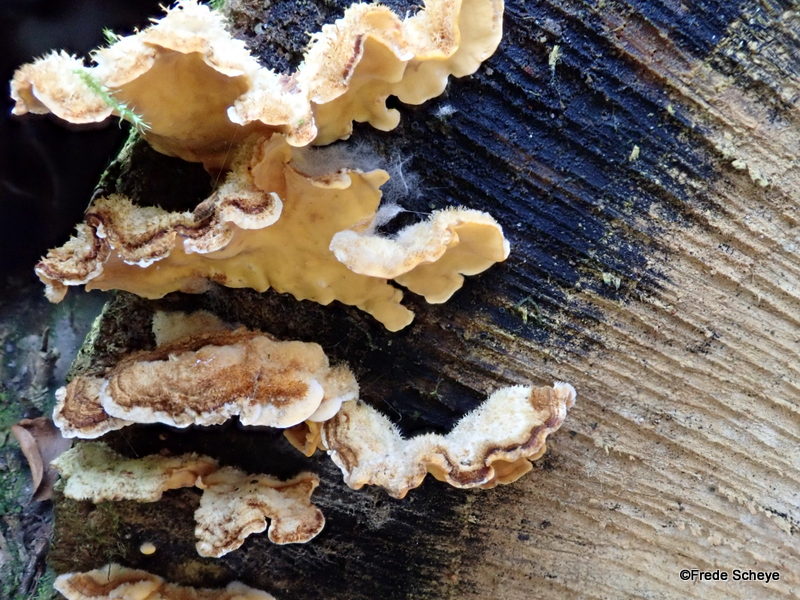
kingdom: Fungi
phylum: Basidiomycota
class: Agaricomycetes
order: Russulales
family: Stereaceae
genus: Stereum
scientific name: Stereum hirsutum
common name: håret lædersvamp
